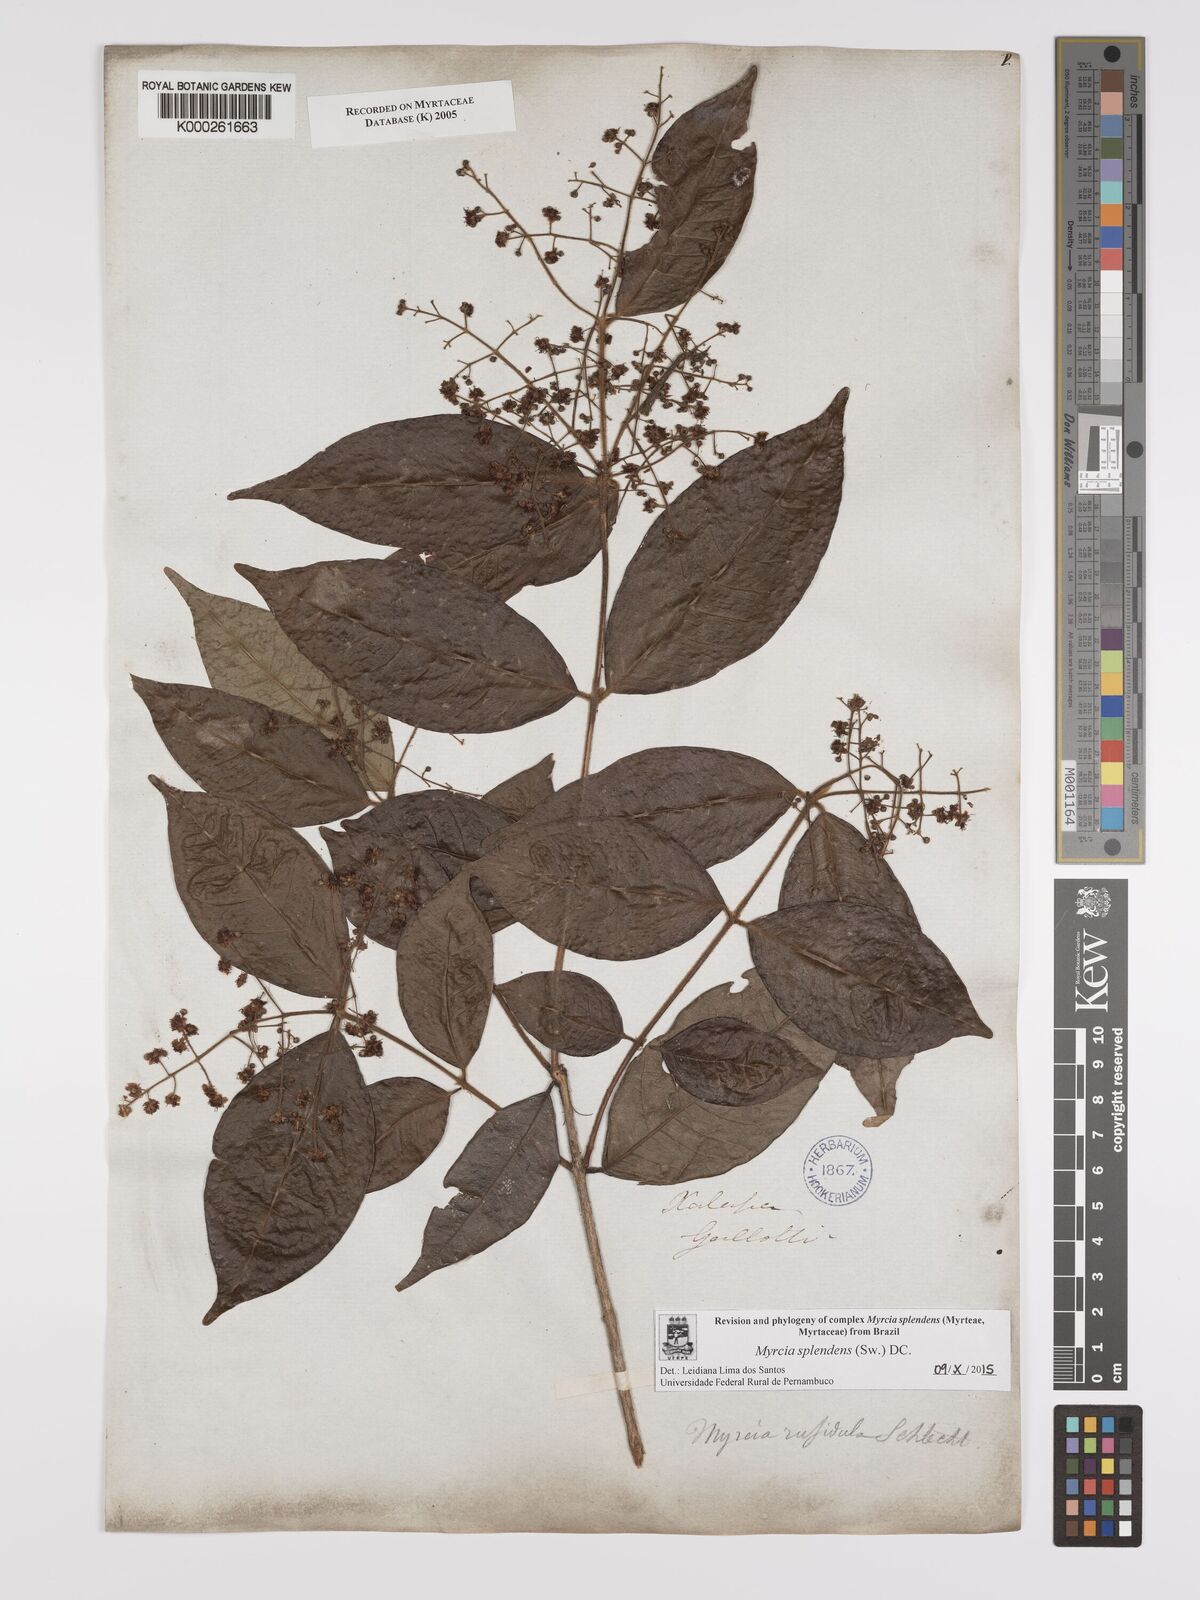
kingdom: Plantae
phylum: Tracheophyta
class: Magnoliopsida
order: Myrtales
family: Myrtaceae
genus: Myrcia
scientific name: Myrcia splendens
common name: Surinam cherry
